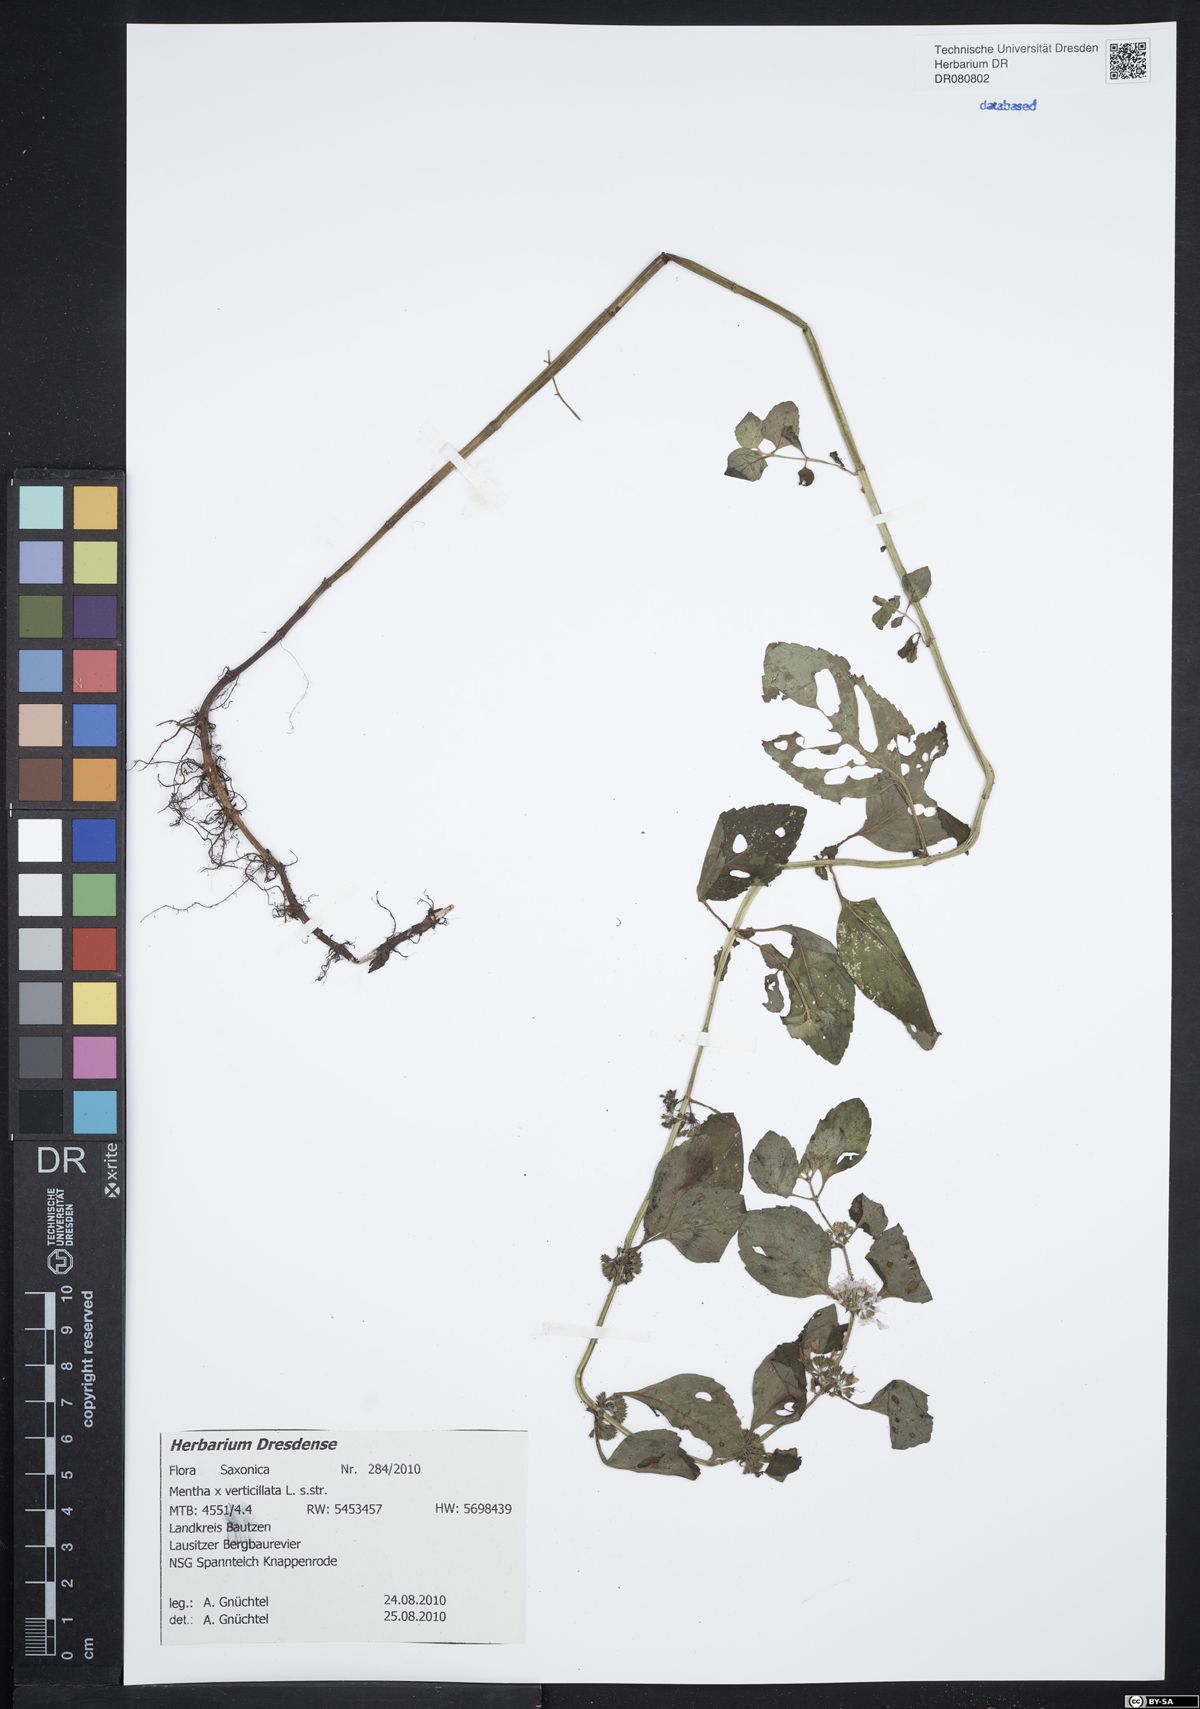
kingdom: Plantae
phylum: Tracheophyta
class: Magnoliopsida
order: Lamiales
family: Lamiaceae
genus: Mentha
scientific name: Mentha verticillata
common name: Mint
